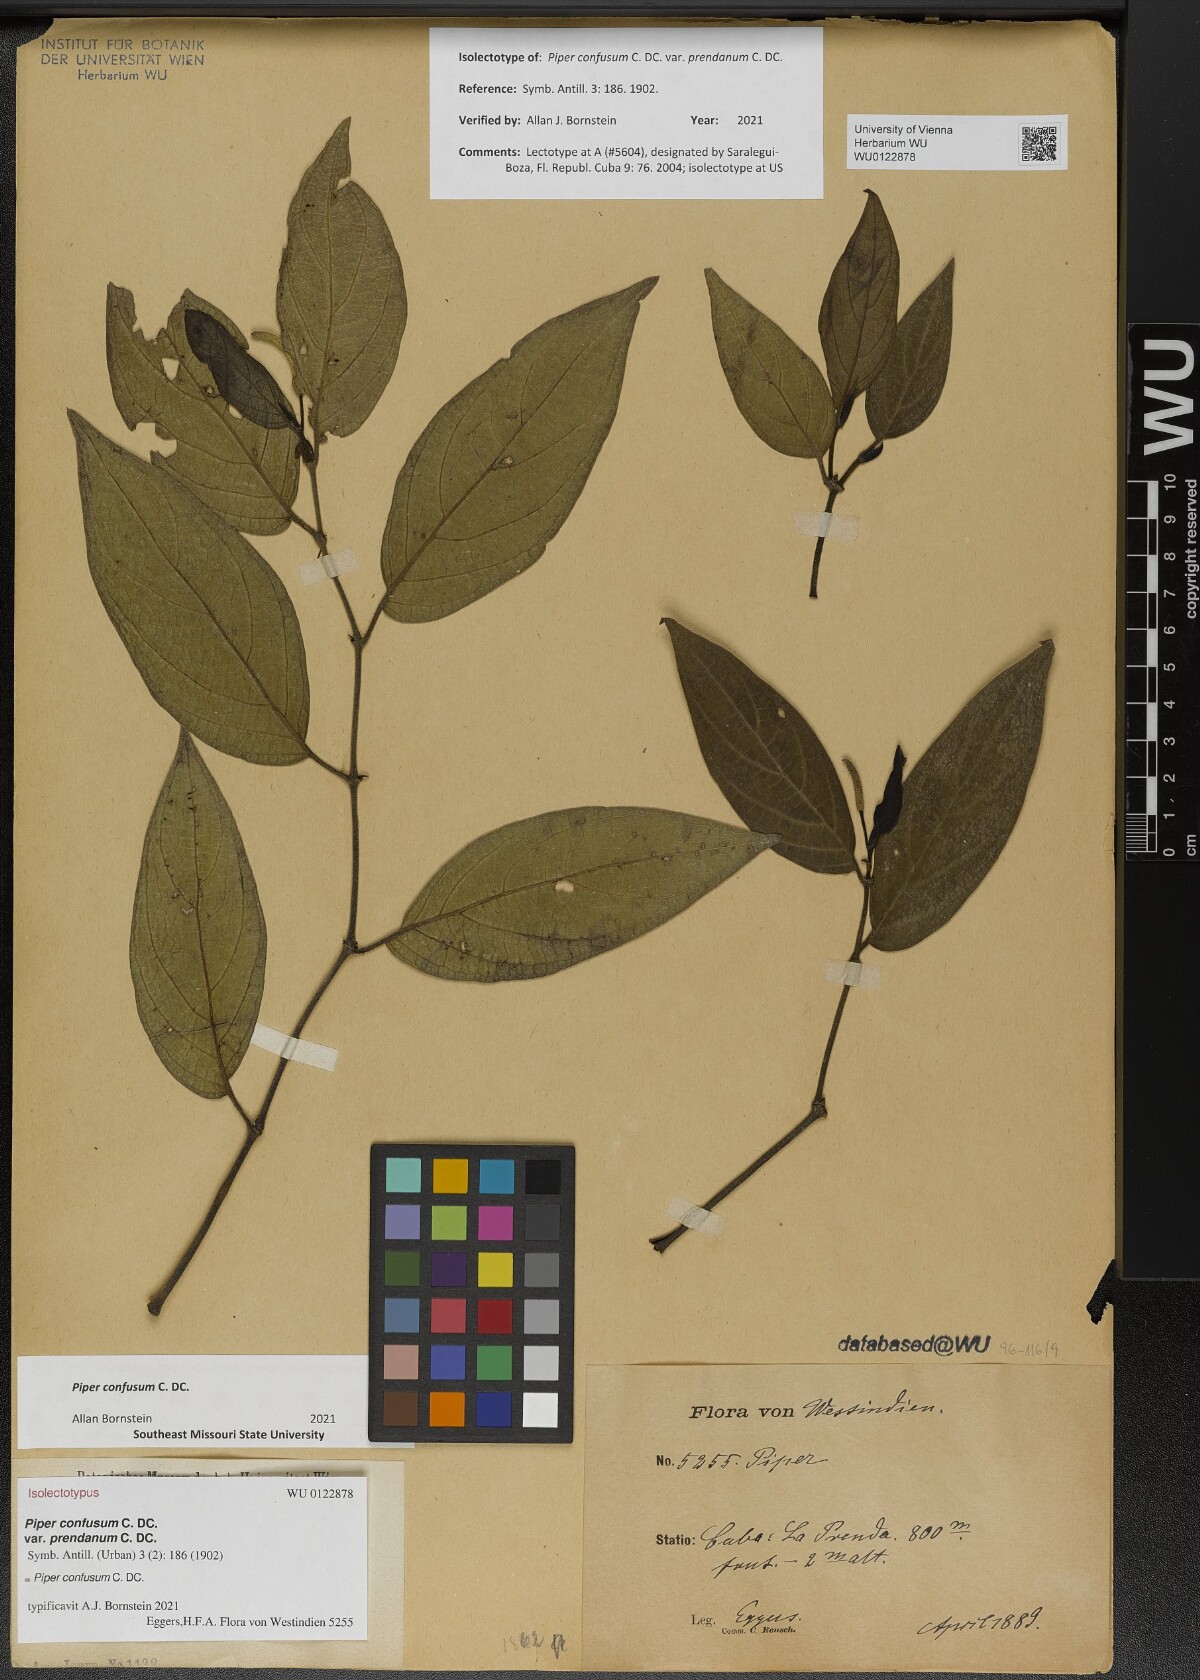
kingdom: Plantae
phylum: Tracheophyta
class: Magnoliopsida
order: Piperales
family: Piperaceae
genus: Piper
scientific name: Piper confusum
